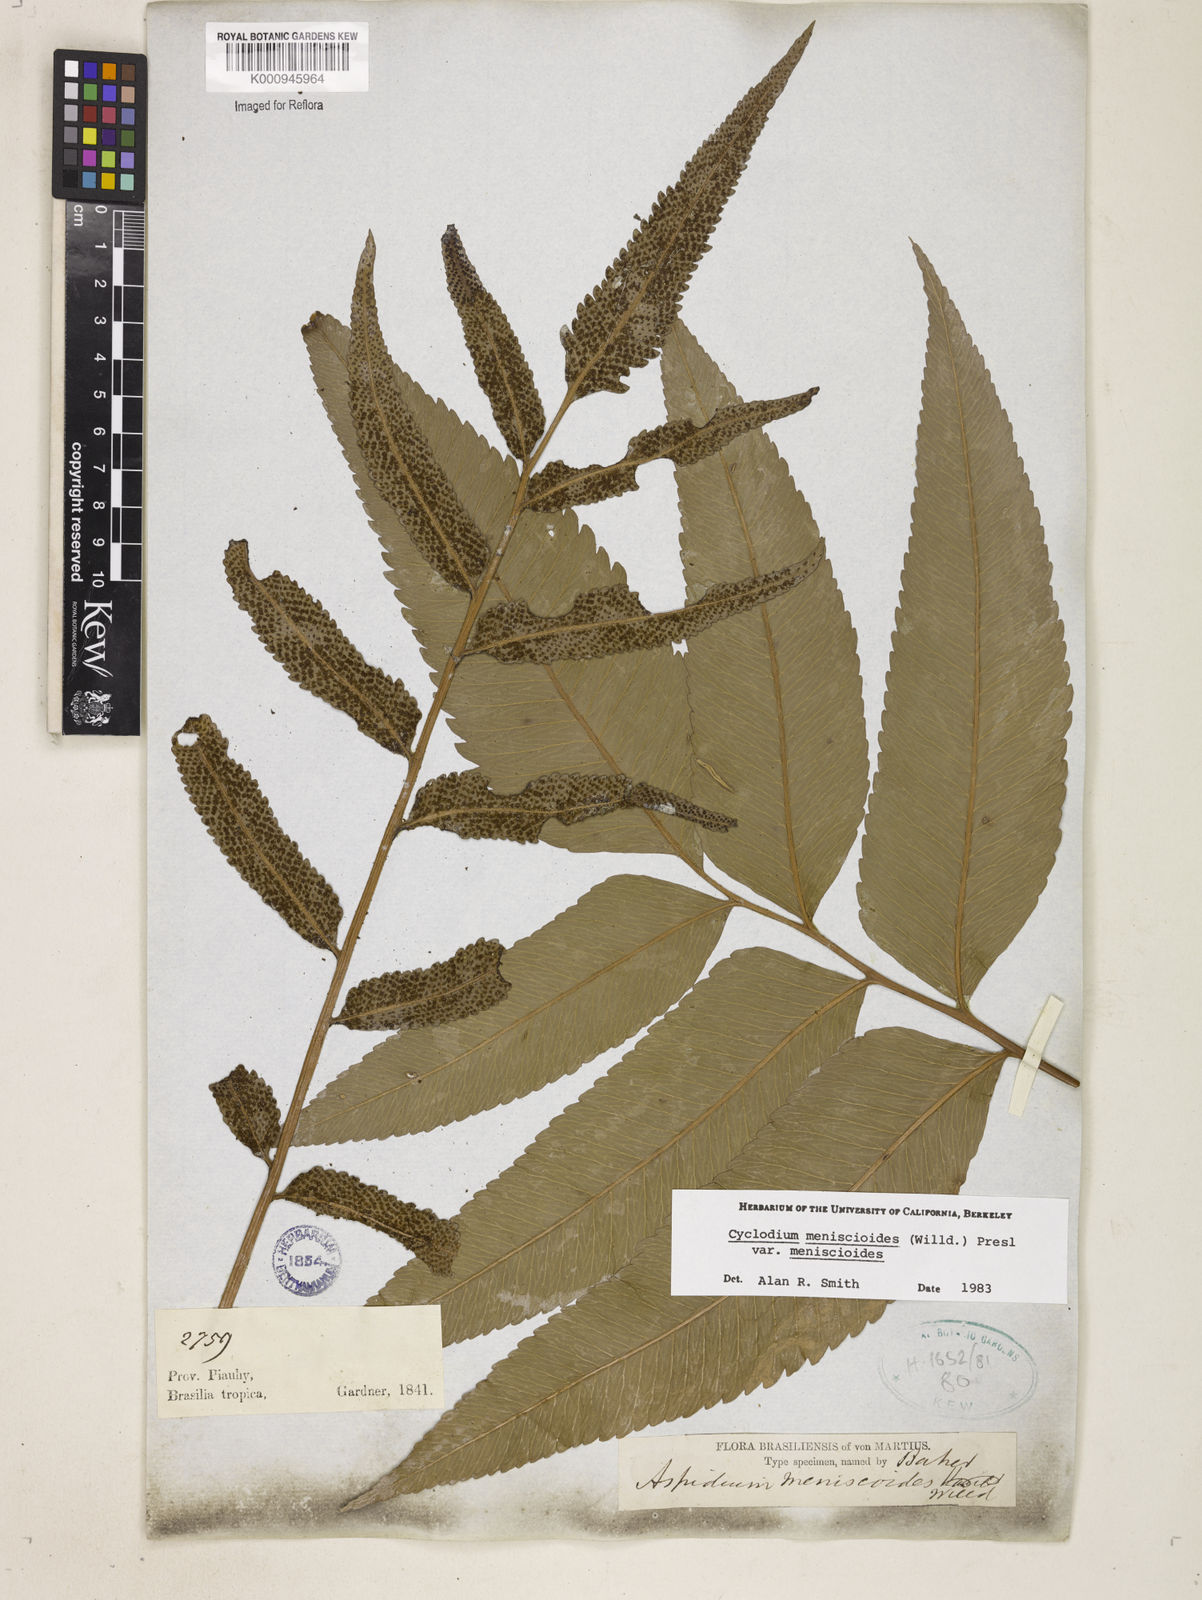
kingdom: Plantae
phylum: Tracheophyta
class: Polypodiopsida
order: Polypodiales
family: Dryopteridaceae
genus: Cyclodium
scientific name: Cyclodium meniscioides
